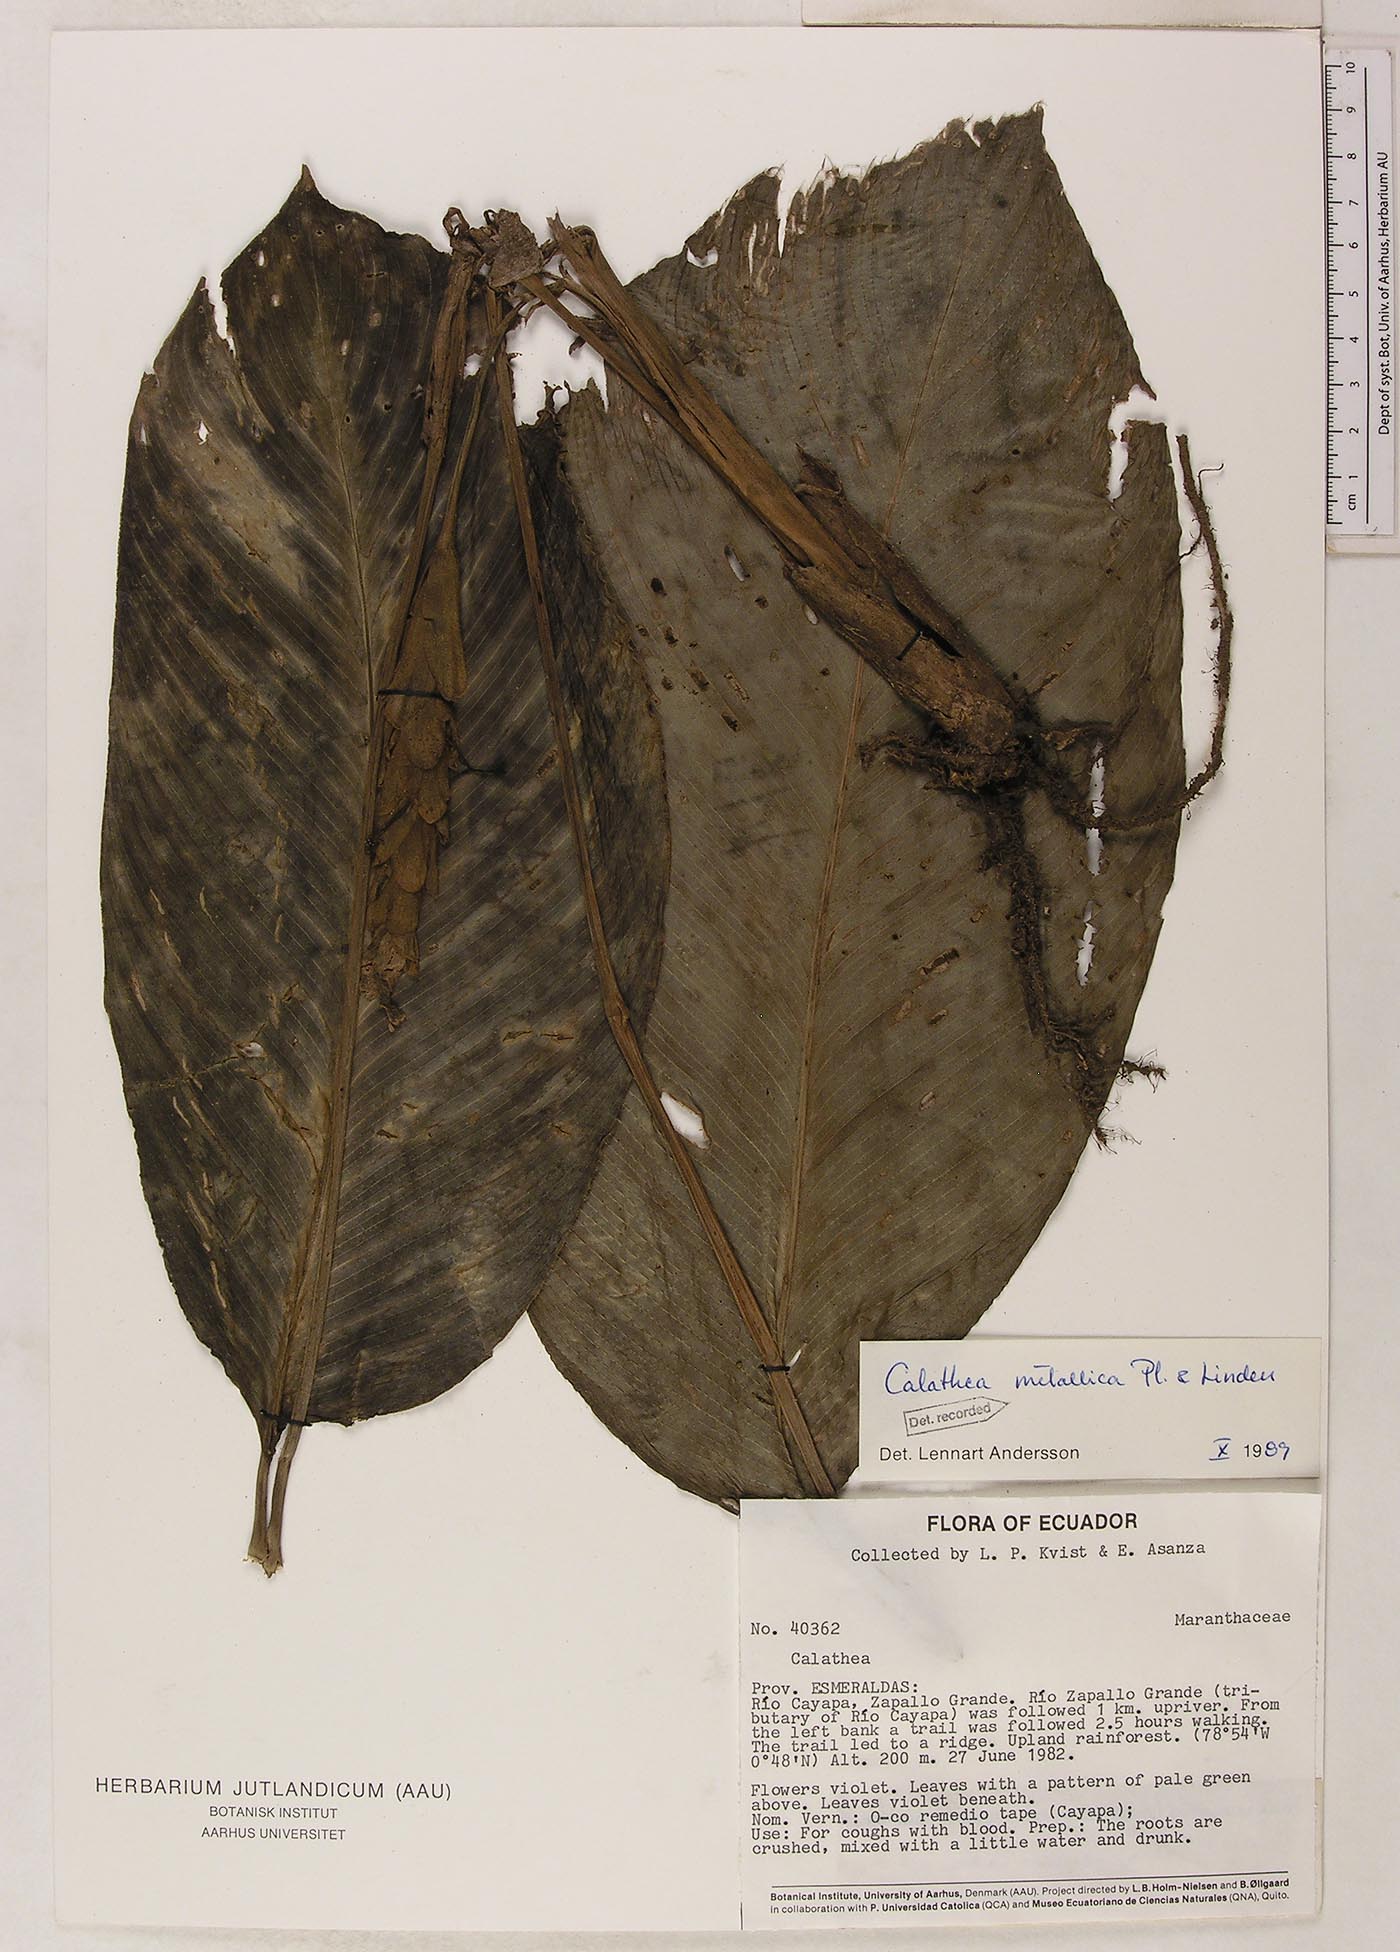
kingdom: Plantae
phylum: Tracheophyta
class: Liliopsida
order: Zingiberales
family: Marantaceae
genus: Goeppertia
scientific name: Goeppertia metallica
